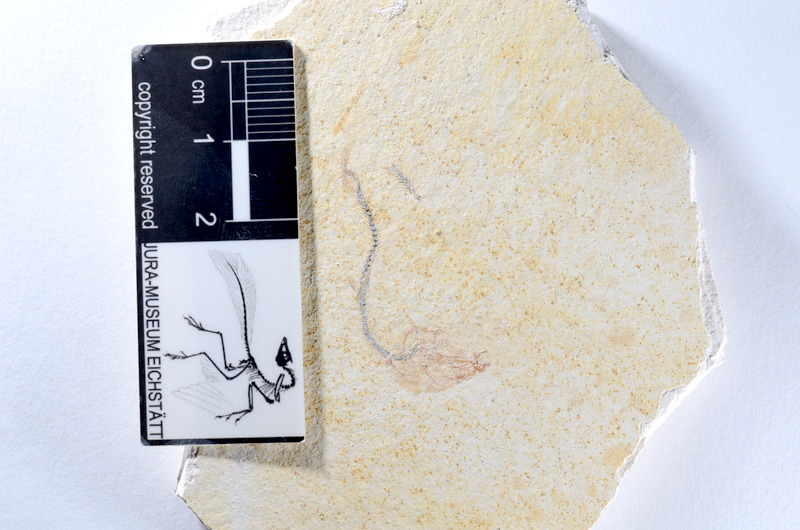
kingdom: Animalia
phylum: Chordata
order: Salmoniformes
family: Orthogonikleithridae
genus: Orthogonikleithrus
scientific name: Orthogonikleithrus hoelli
